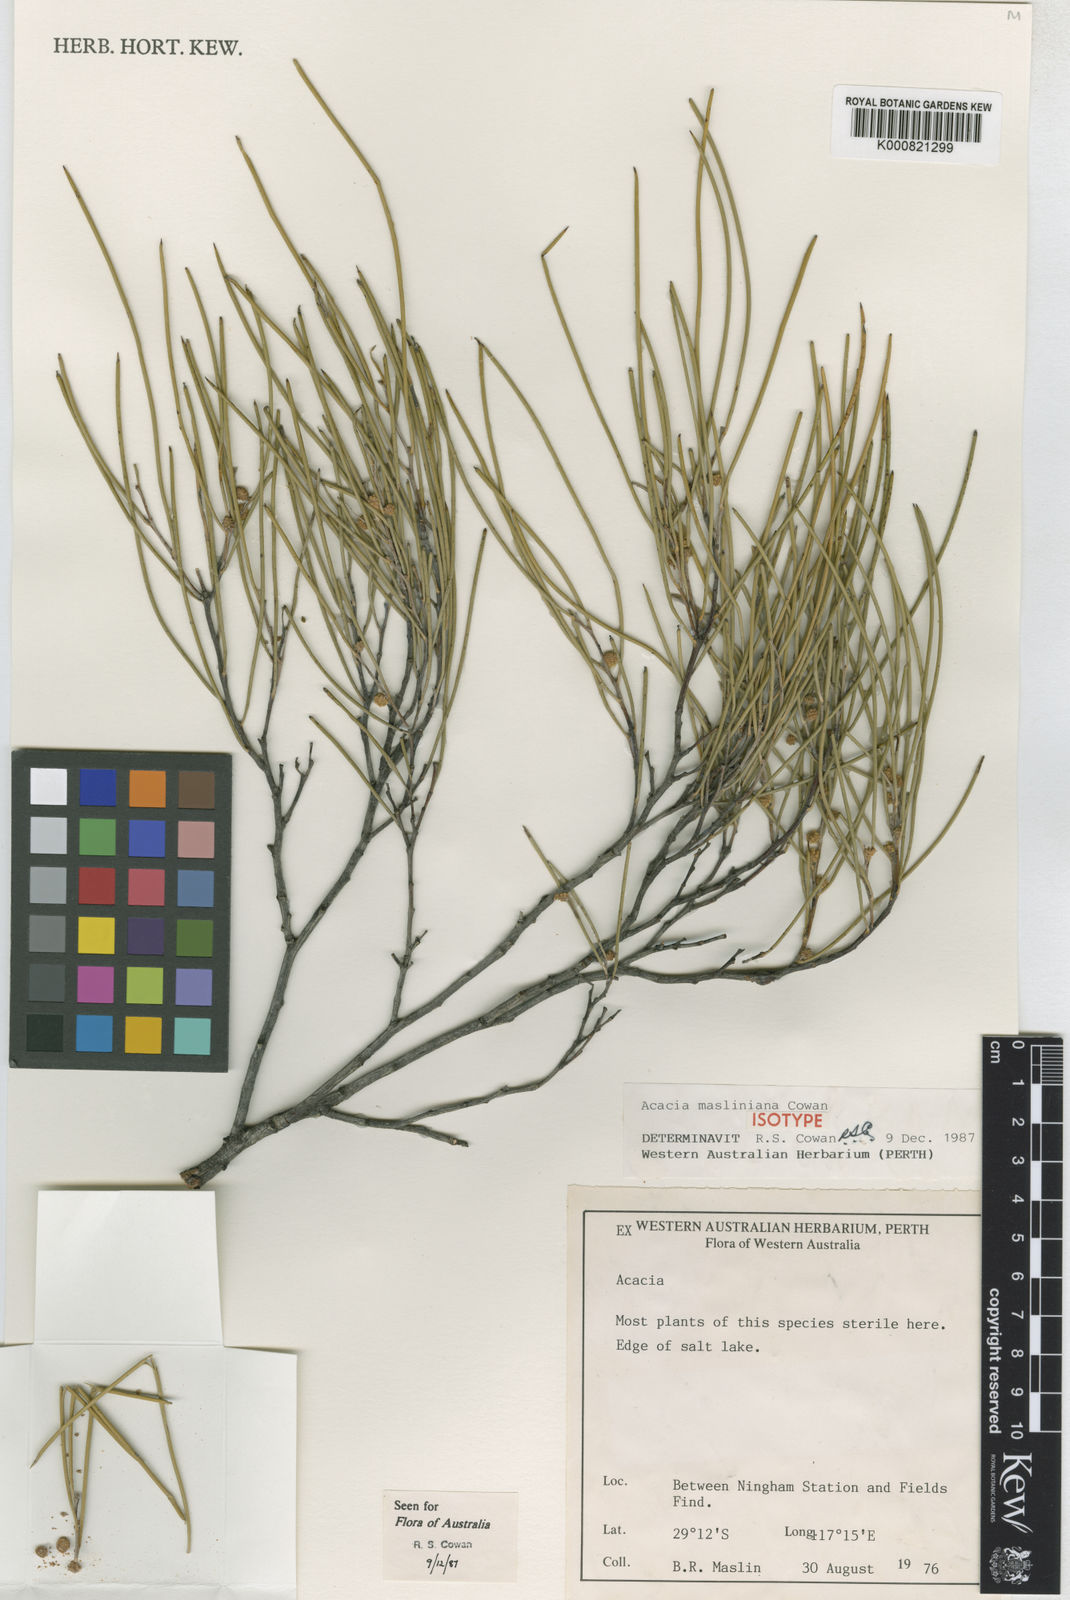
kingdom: Plantae
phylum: Tracheophyta
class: Magnoliopsida
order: Fabales
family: Fabaceae
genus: Acacia
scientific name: Acacia masliniana
